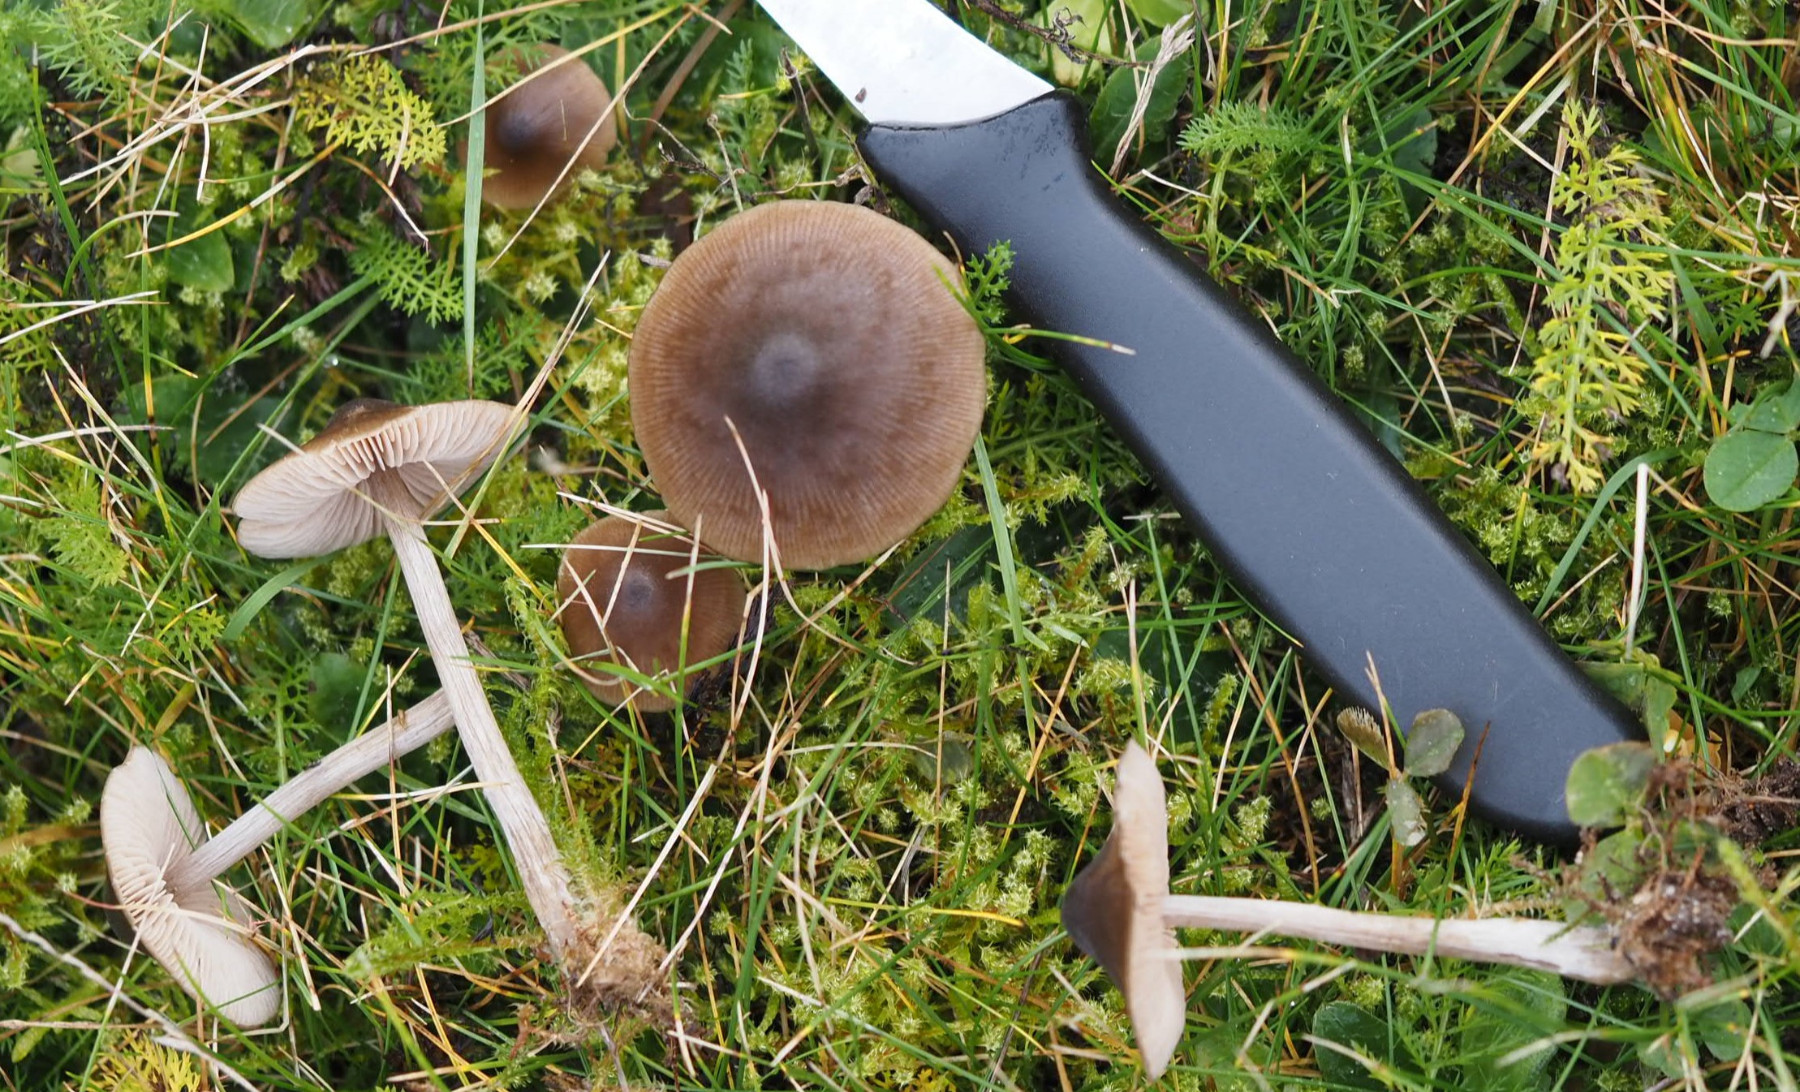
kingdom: Fungi
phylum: Basidiomycota
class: Agaricomycetes
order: Agaricales
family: Entolomataceae
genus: Entoloma
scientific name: Entoloma
